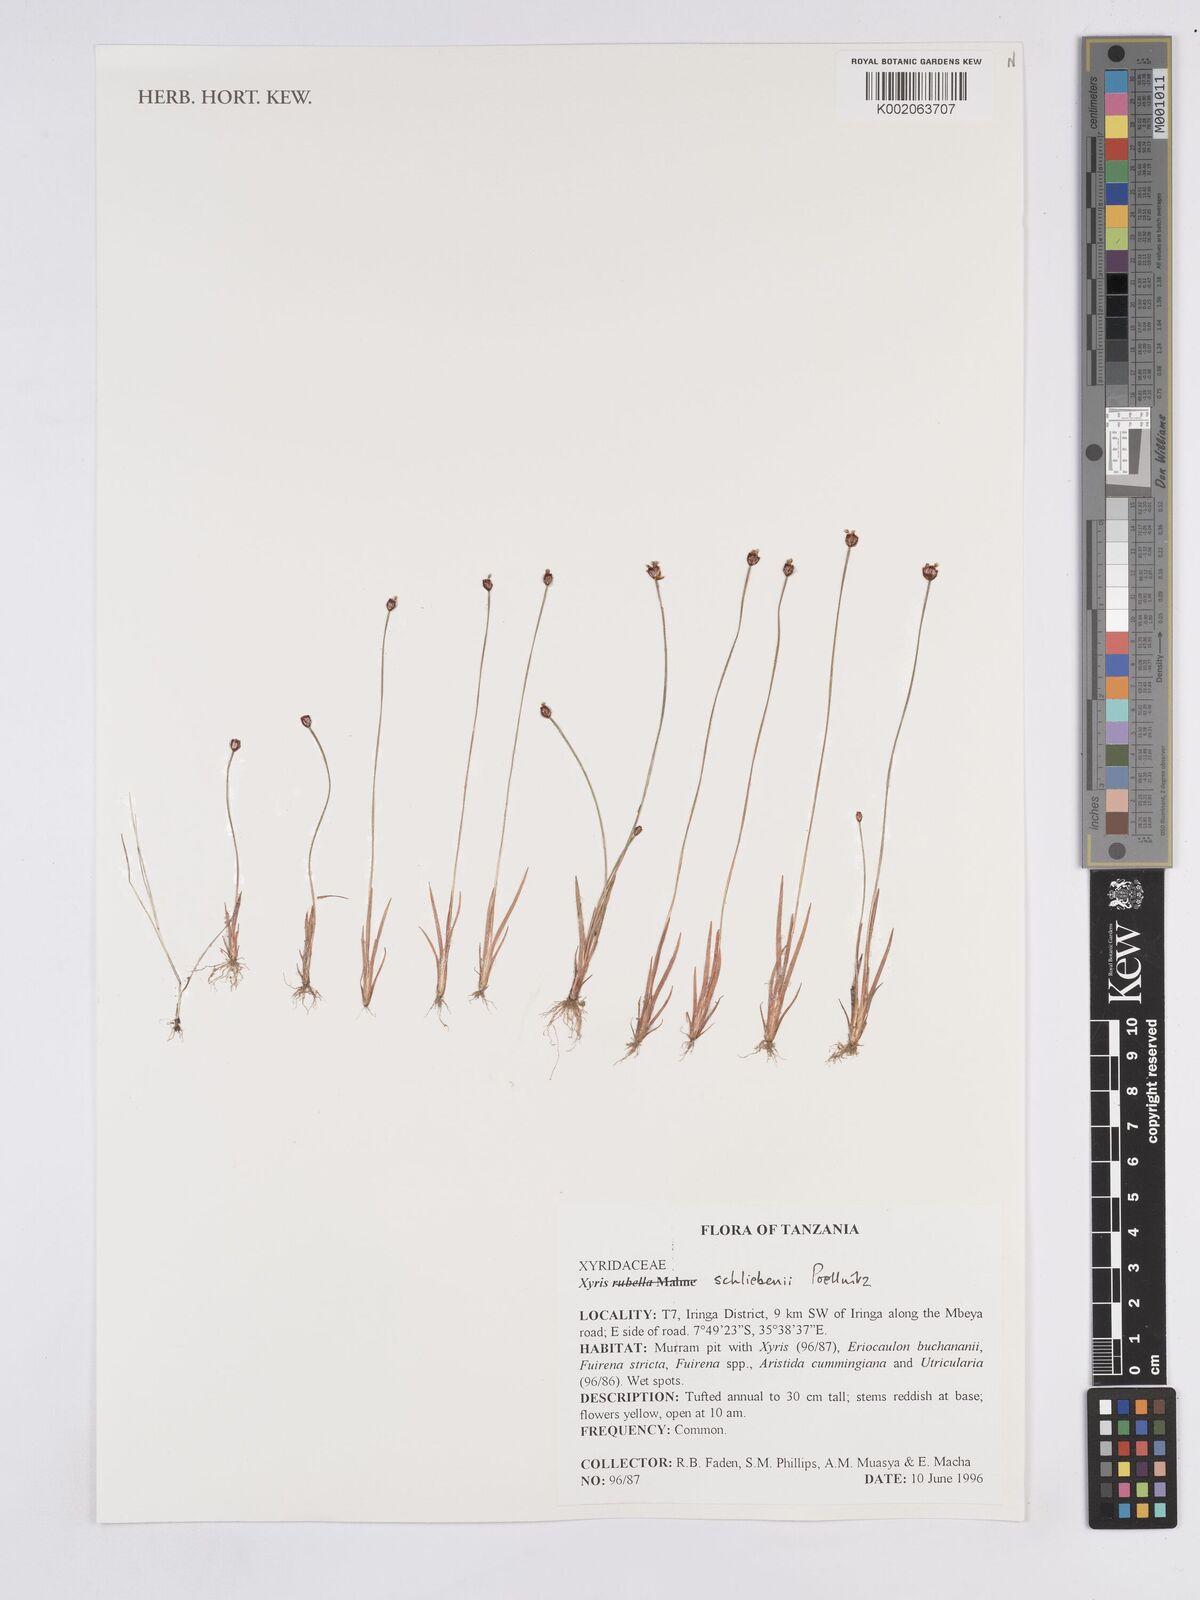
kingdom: Plantae
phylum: Tracheophyta
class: Liliopsida
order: Poales
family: Xyridaceae
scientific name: Xyridaceae
